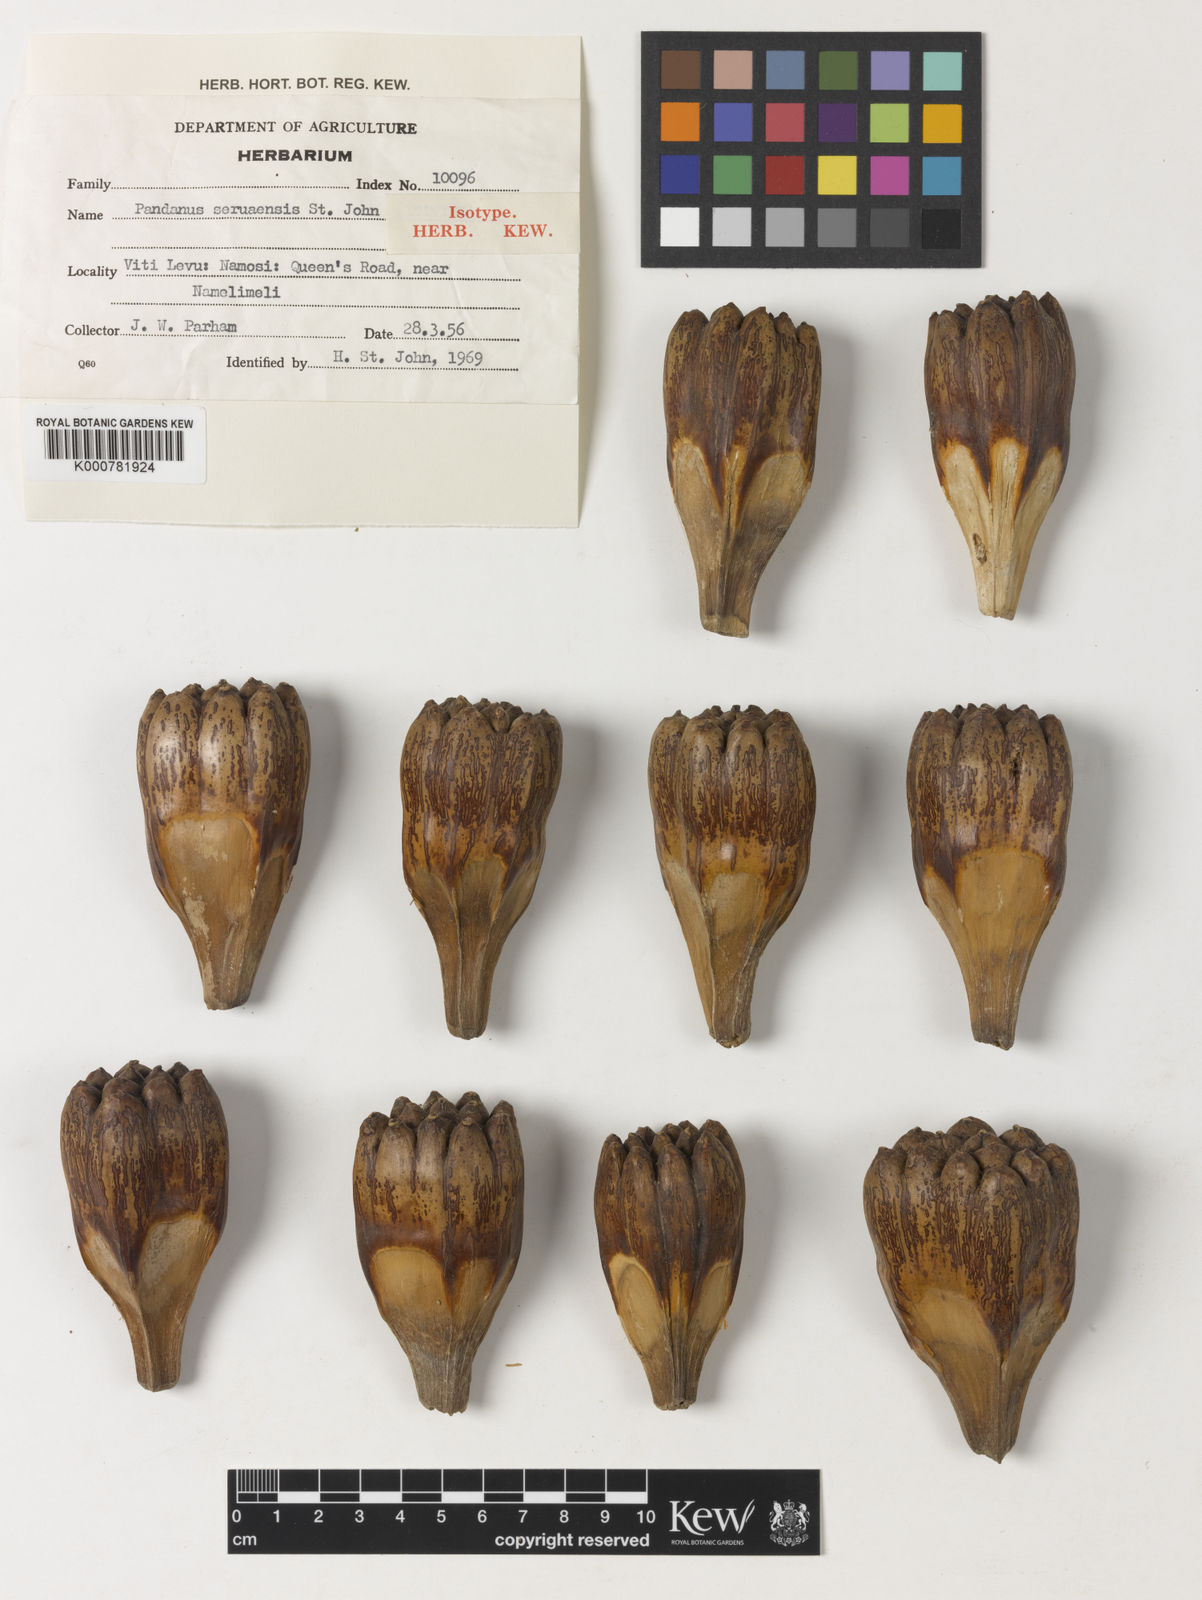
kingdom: Plantae
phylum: Tracheophyta
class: Liliopsida
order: Pandanales
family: Pandanaceae
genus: Pandanus
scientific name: Pandanus tectorius
